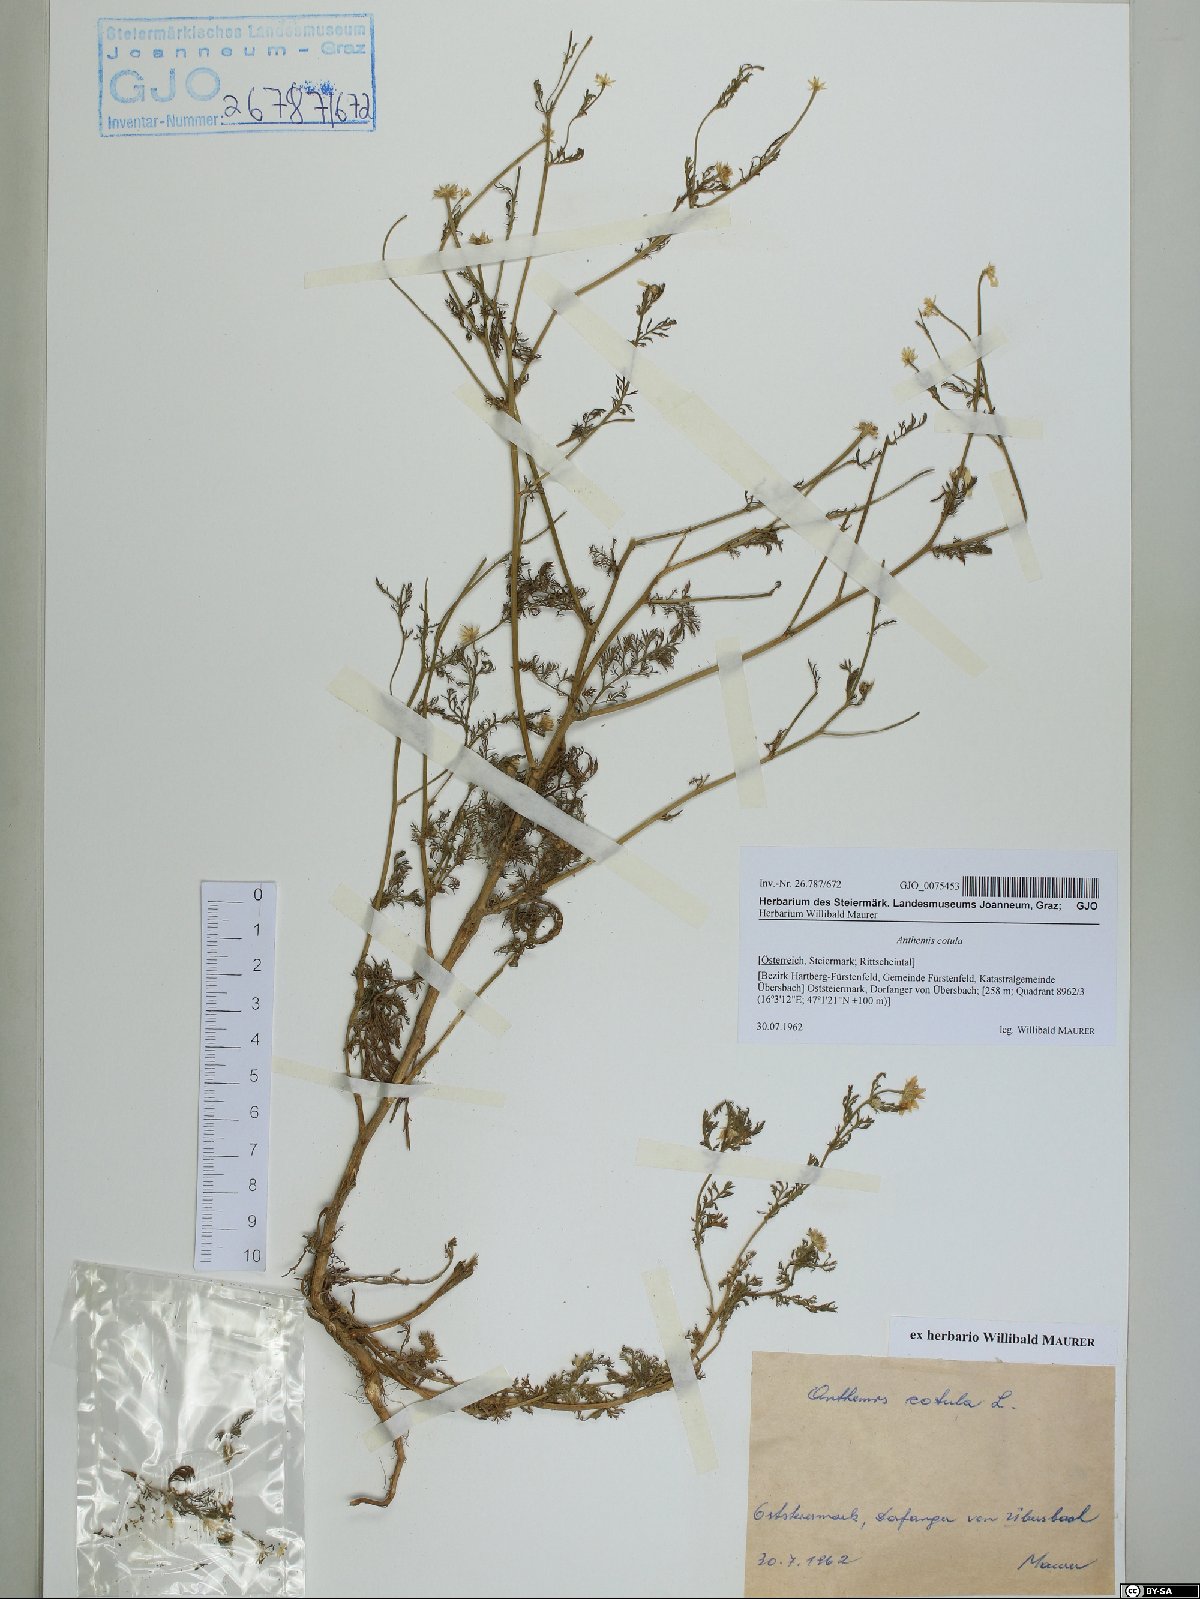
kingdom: Plantae
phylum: Tracheophyta
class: Magnoliopsida
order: Asterales
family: Asteraceae
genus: Anthemis
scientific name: Anthemis cotula
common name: Stinking chamomile
